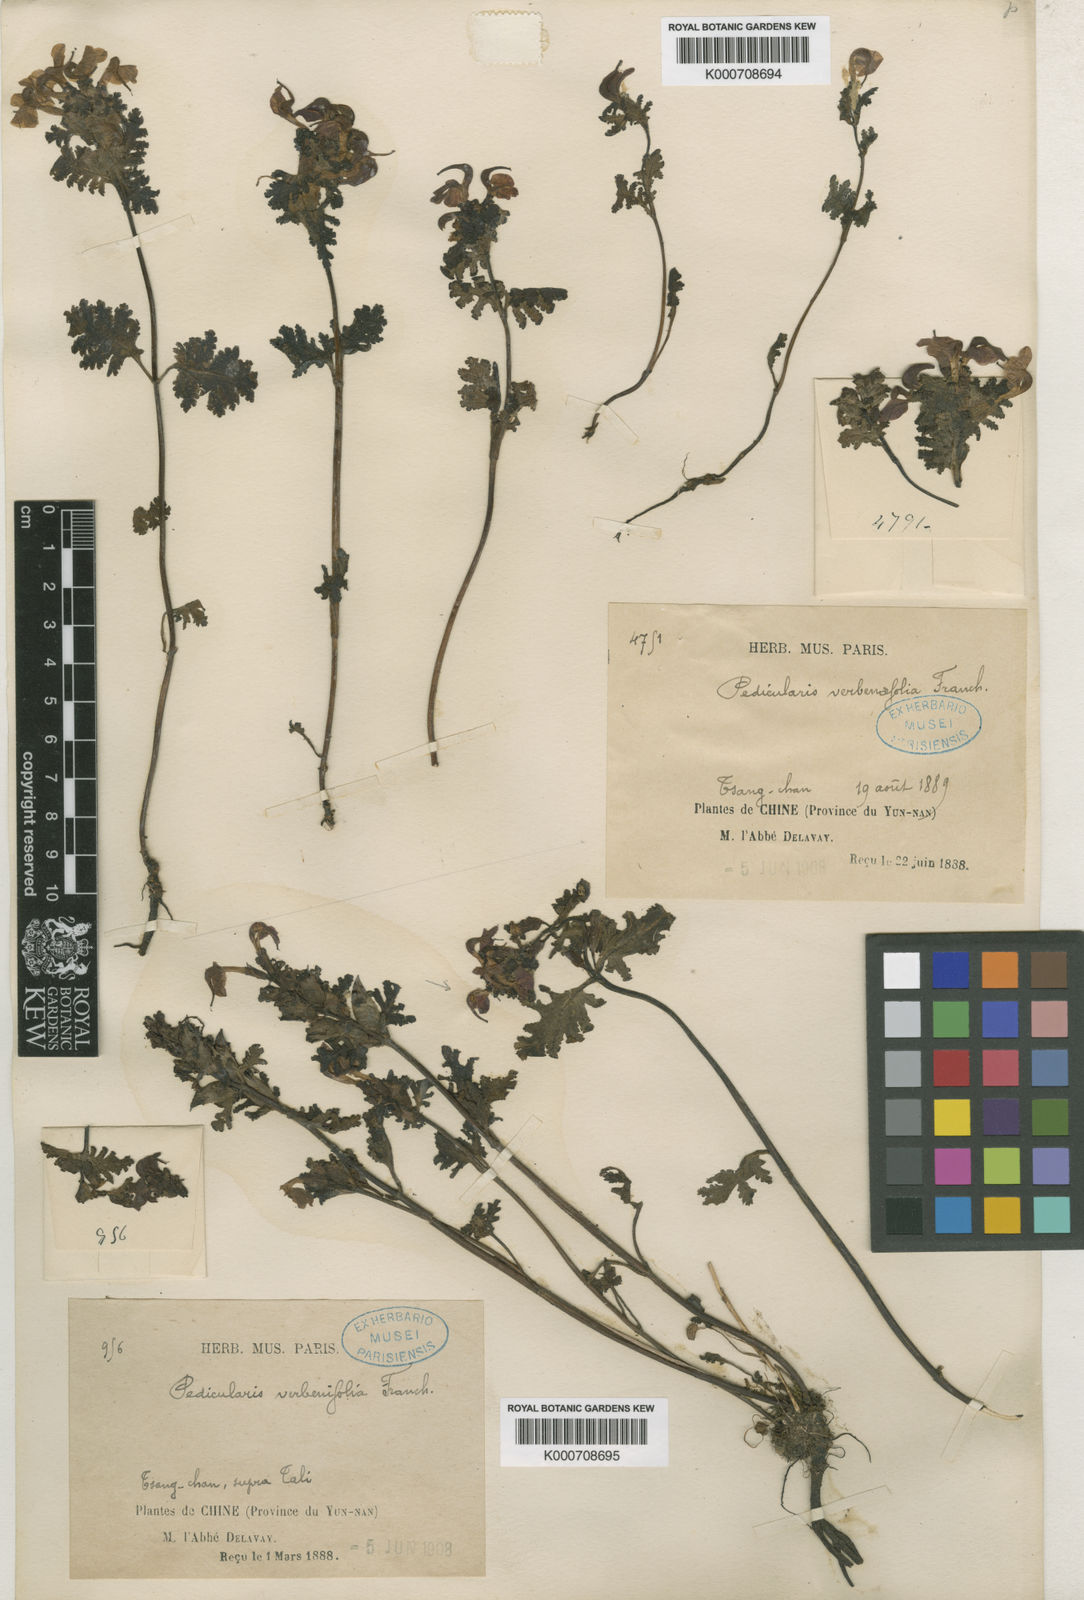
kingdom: Plantae
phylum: Tracheophyta
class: Magnoliopsida
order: Lamiales
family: Orobanchaceae
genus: Pedicularis
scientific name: Pedicularis
